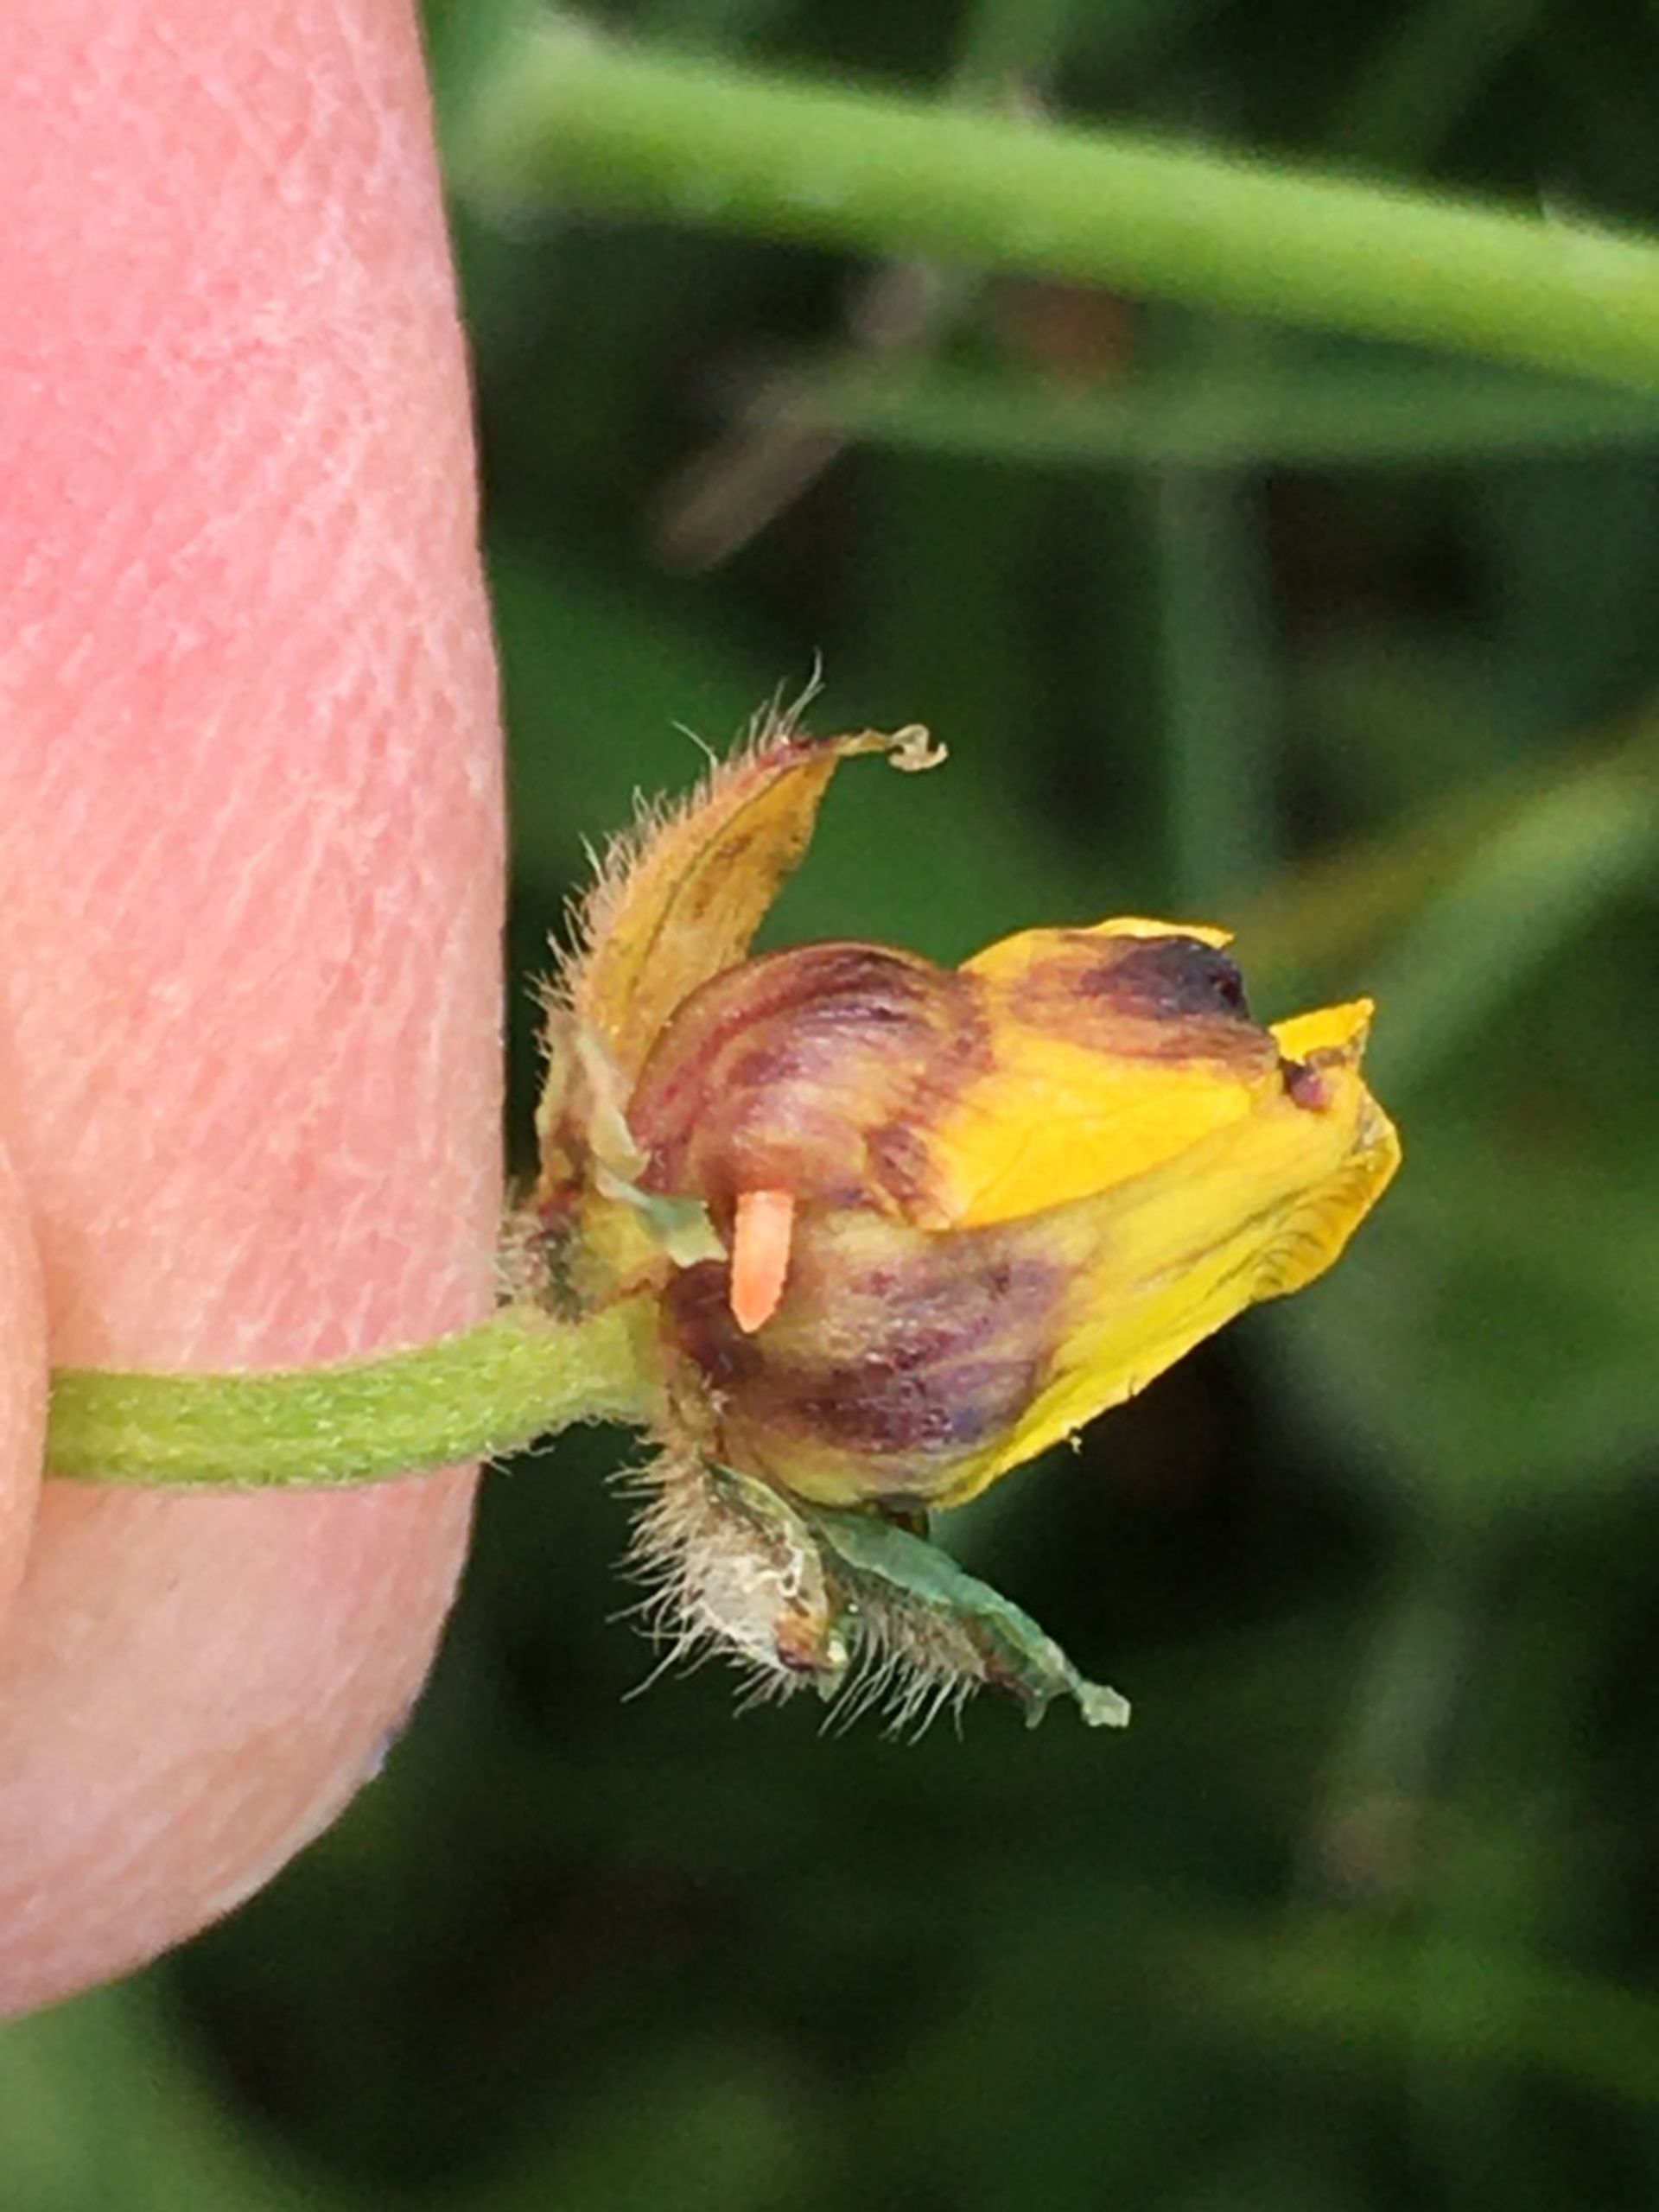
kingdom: Animalia
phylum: Arthropoda
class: Insecta
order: Diptera
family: Cecidomyiidae
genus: Dasineura
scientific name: Dasineura traili
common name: Smørblomstgalmyg
